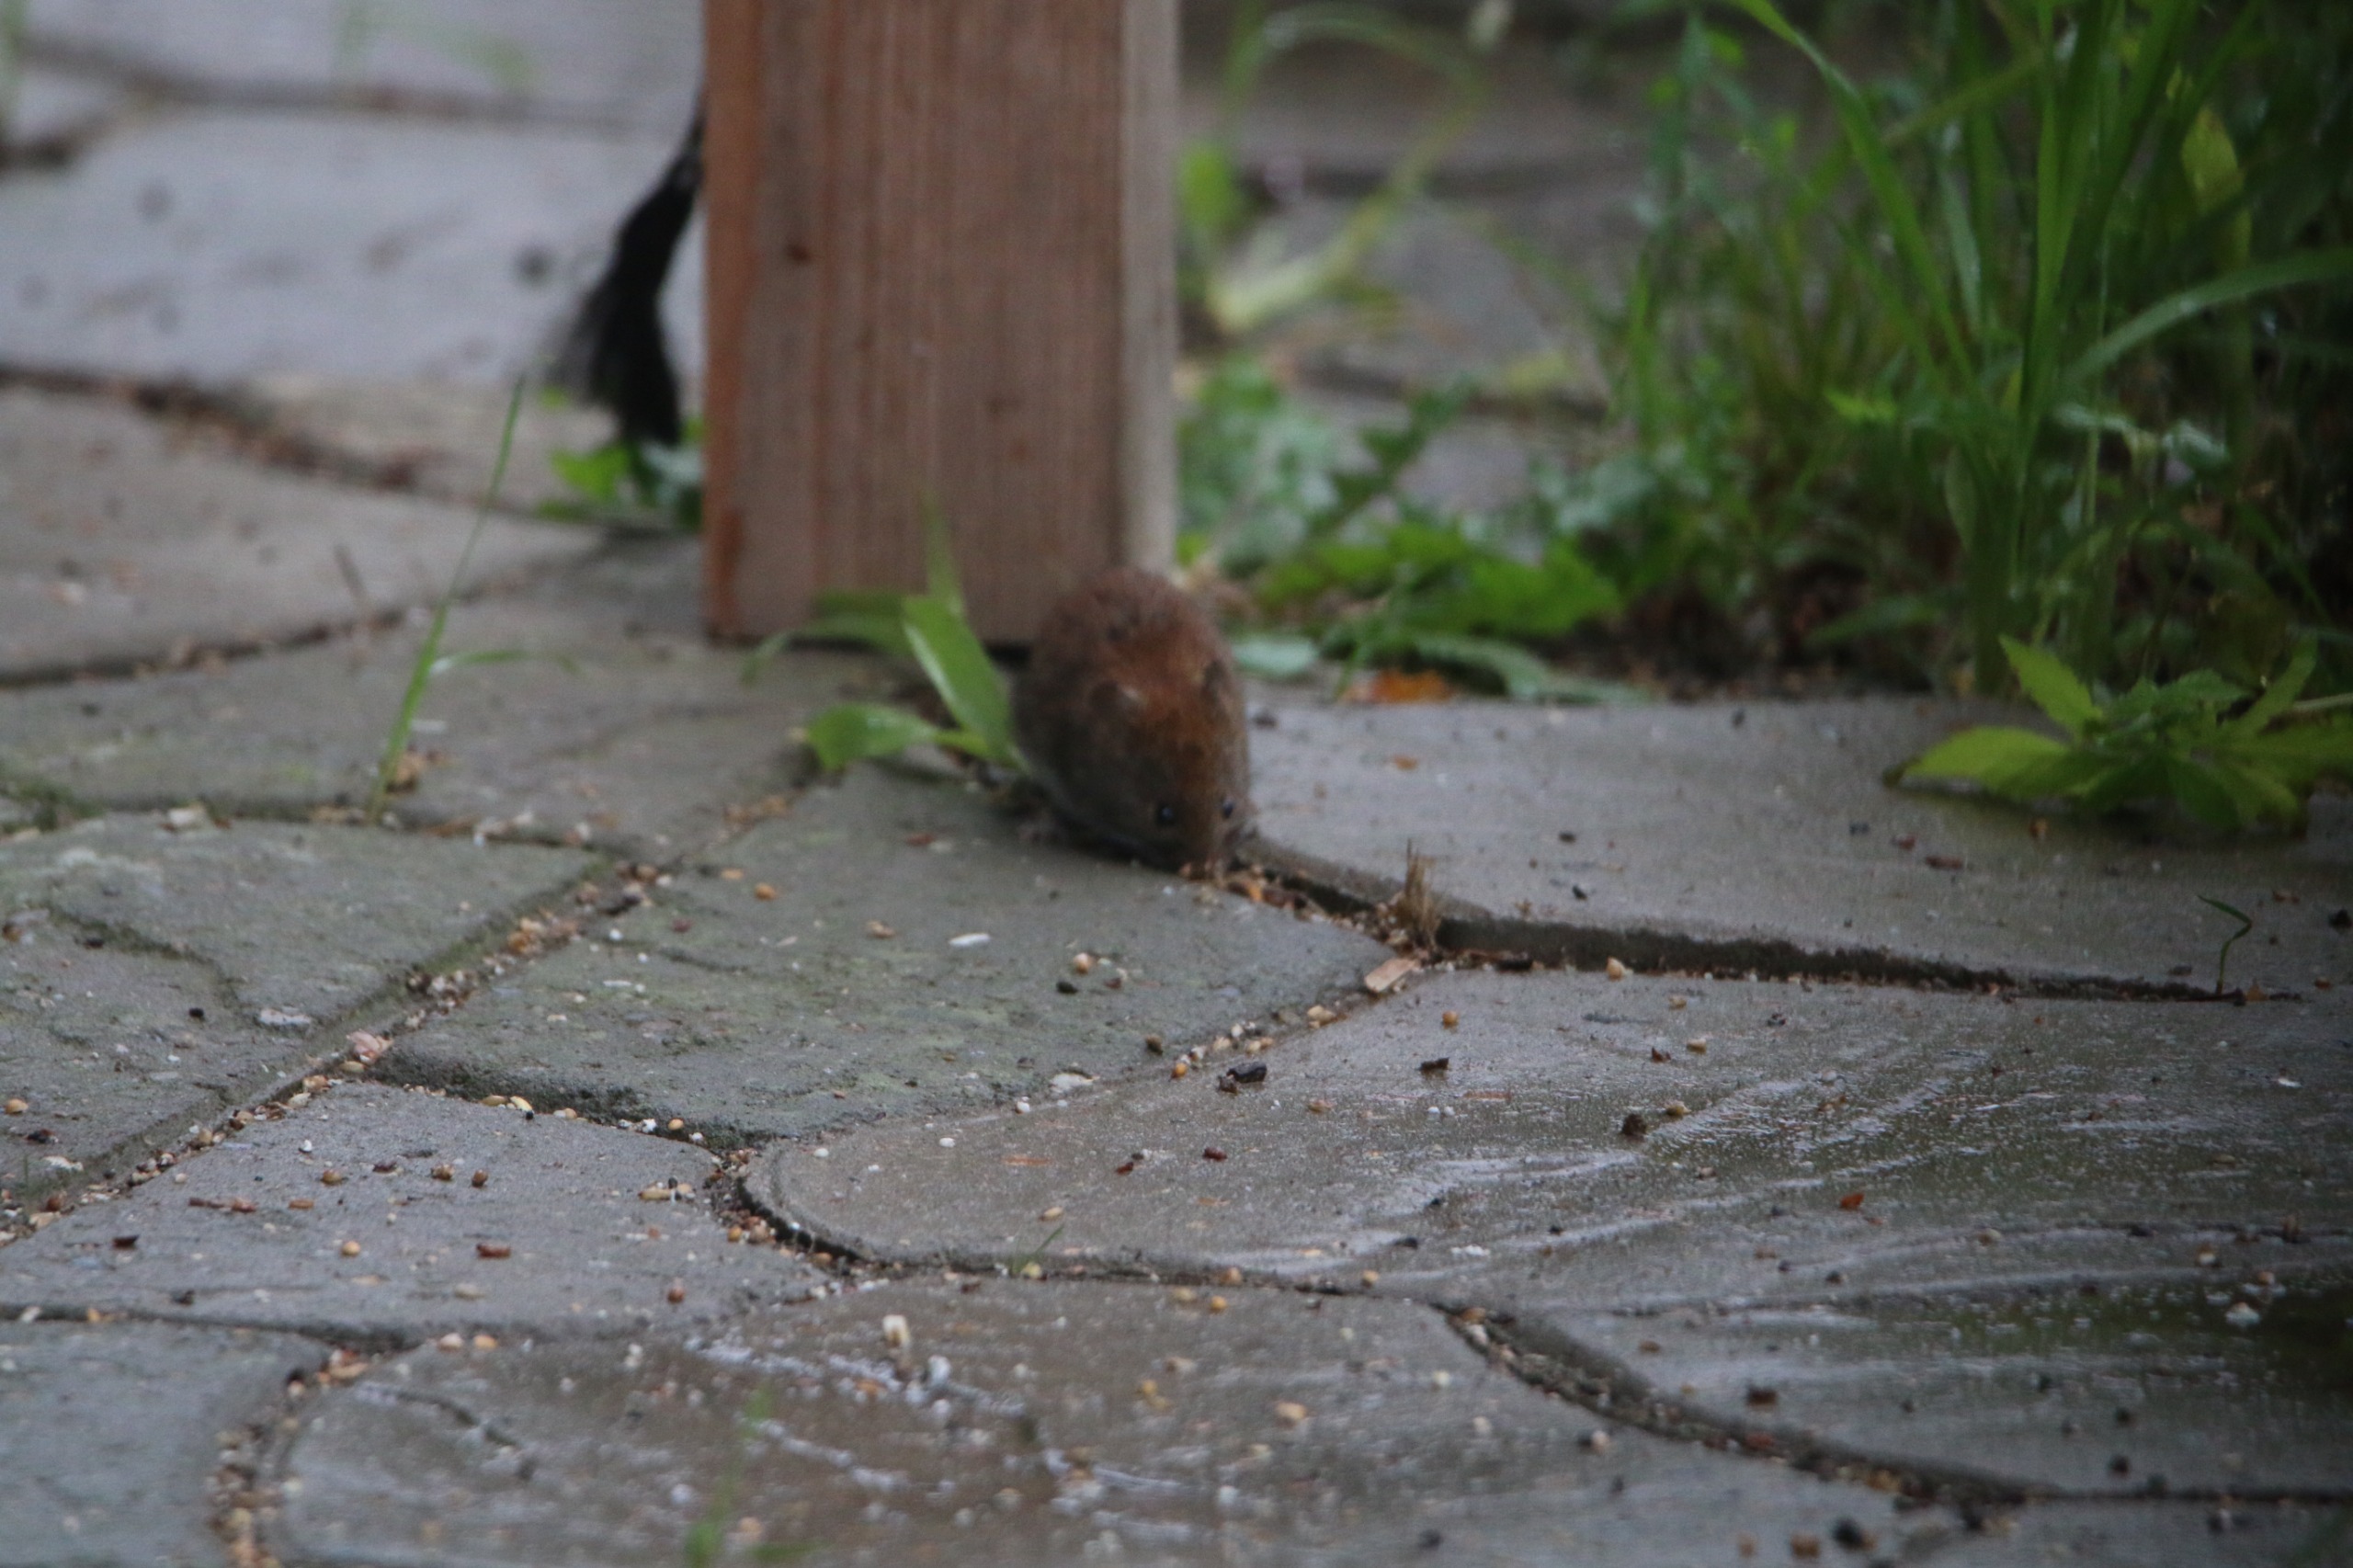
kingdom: Animalia
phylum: Chordata
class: Mammalia
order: Rodentia
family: Cricetidae
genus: Myodes
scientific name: Myodes glareolus
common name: Rødmus
